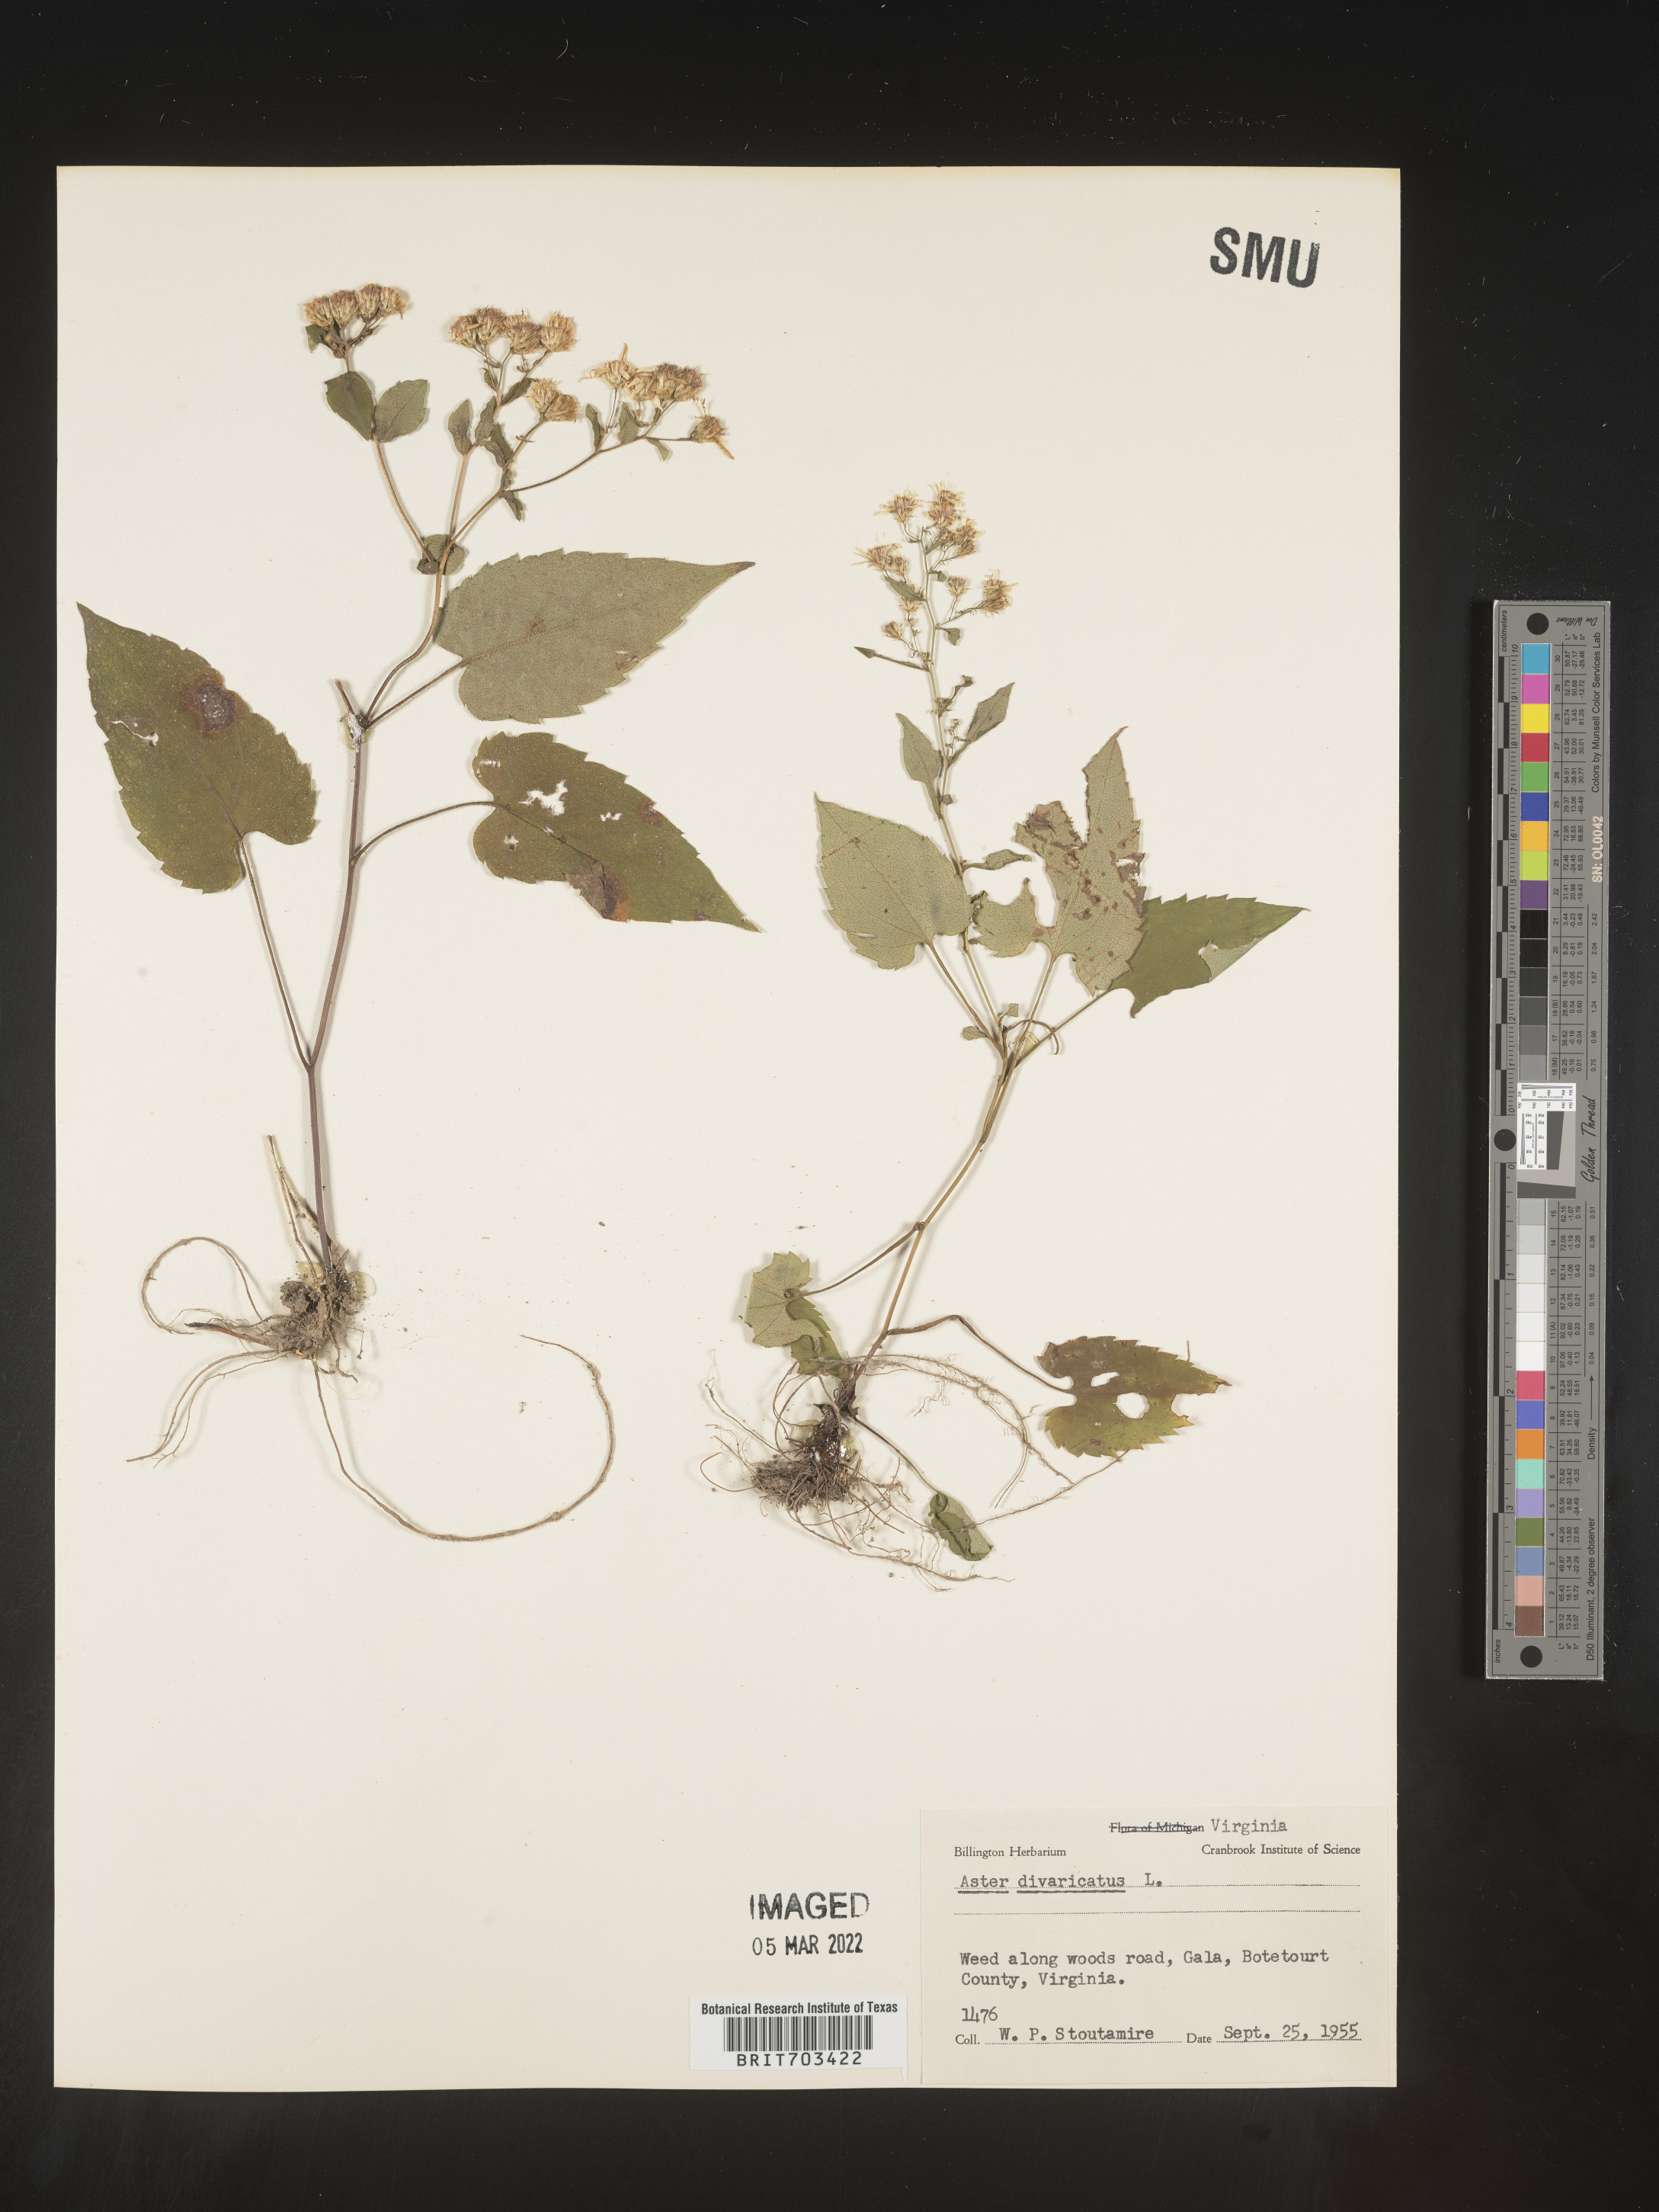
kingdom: Plantae
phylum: Tracheophyta
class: Magnoliopsida
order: Asterales
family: Asteraceae
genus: Eurybia
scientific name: Eurybia divaricata
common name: White wood aster
